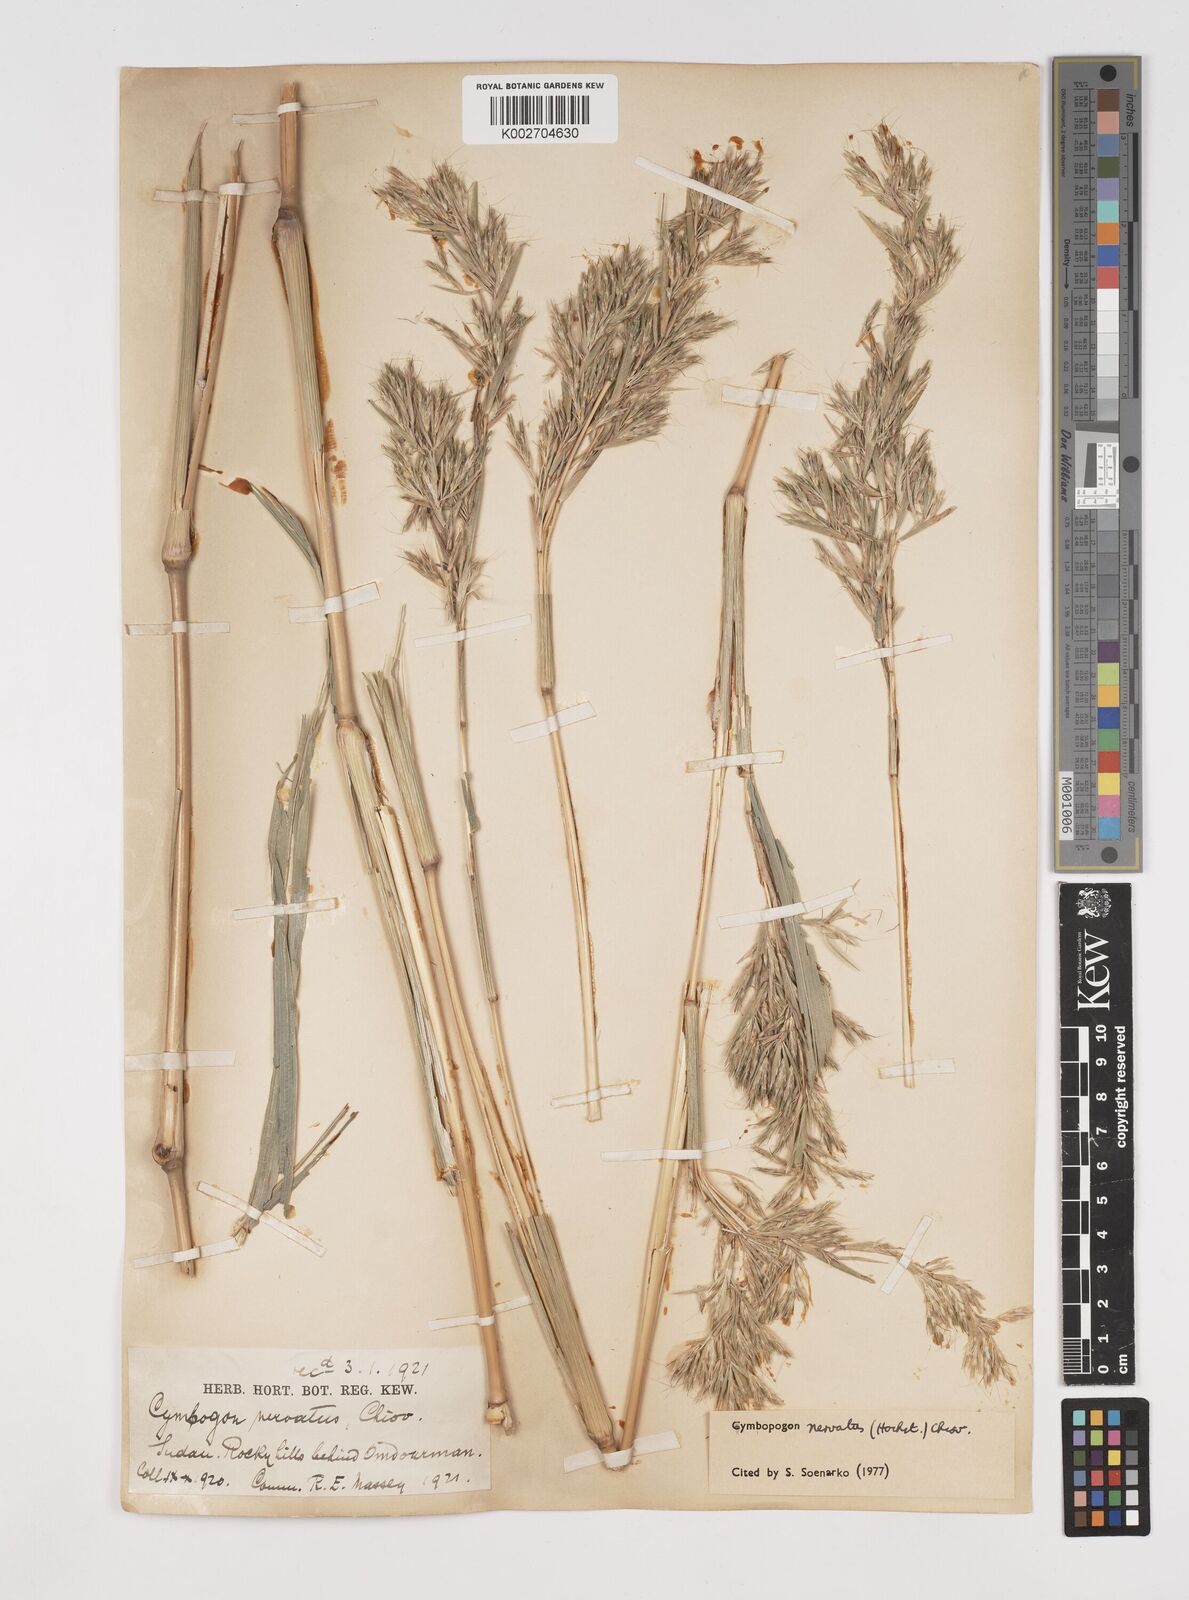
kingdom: Plantae
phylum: Tracheophyta
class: Liliopsida
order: Poales
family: Poaceae
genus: Cymbopogon
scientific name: Cymbopogon nervatus
